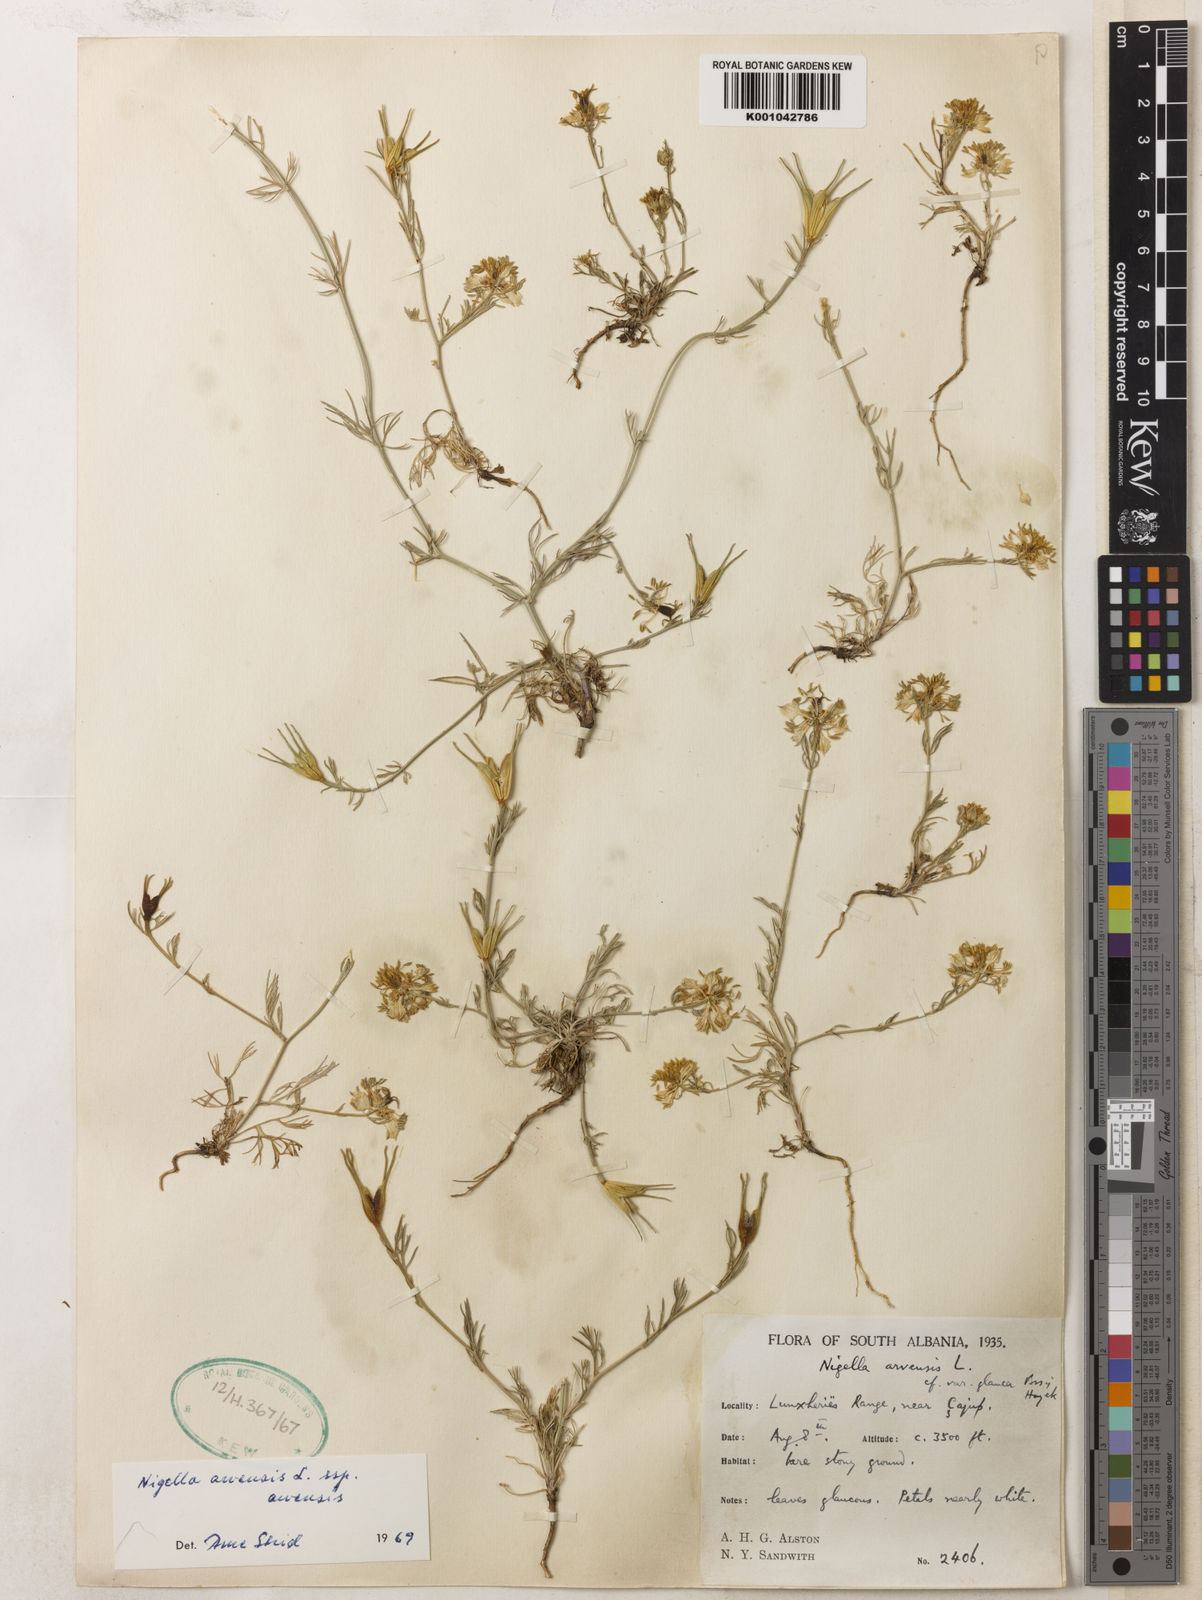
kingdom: Plantae
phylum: Tracheophyta
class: Magnoliopsida
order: Ranunculales
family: Ranunculaceae
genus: Nigella
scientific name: Nigella degenii
